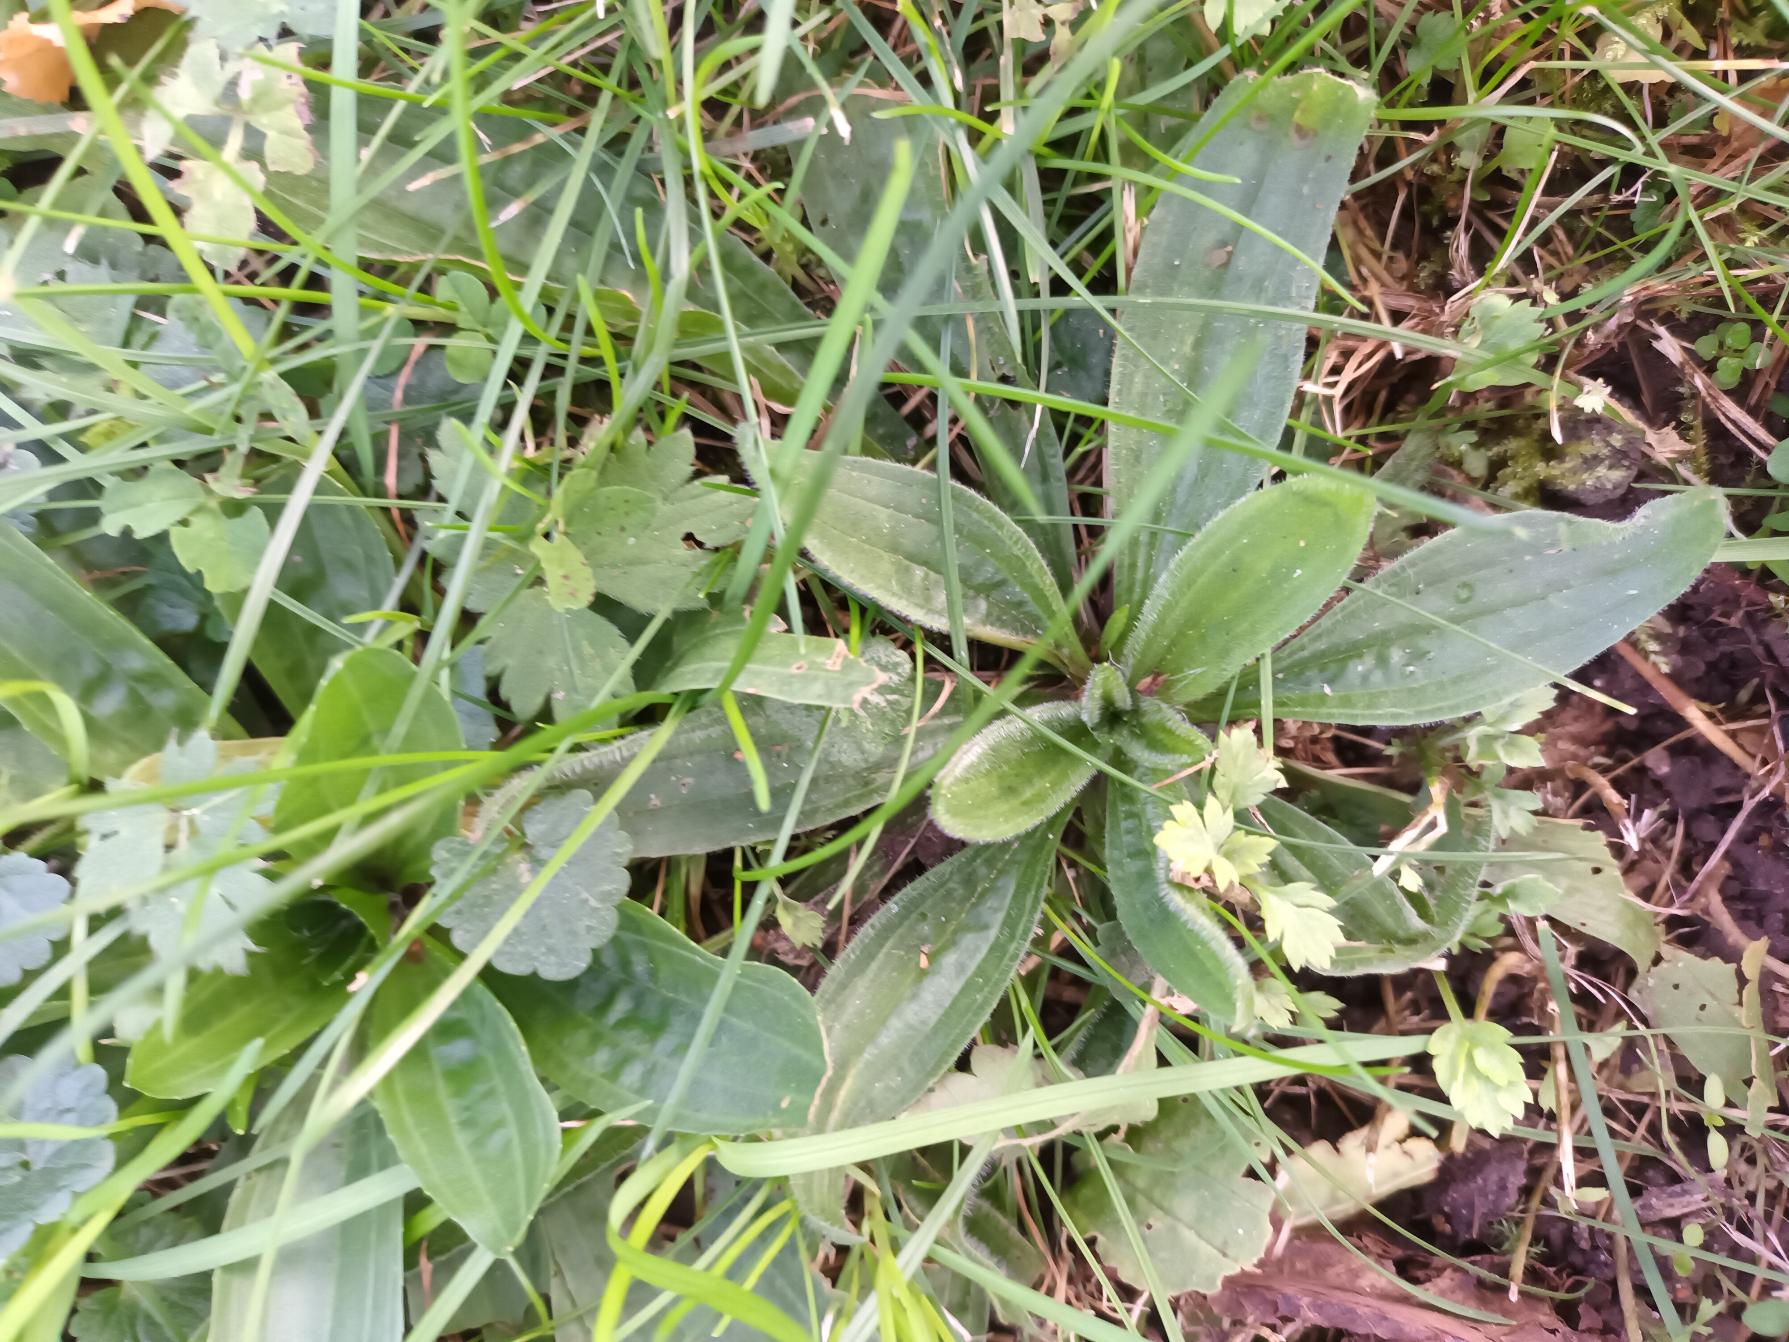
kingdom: Plantae
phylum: Tracheophyta
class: Magnoliopsida
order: Lamiales
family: Plantaginaceae
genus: Plantago
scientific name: Plantago lanceolata
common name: Lancet-vejbred
